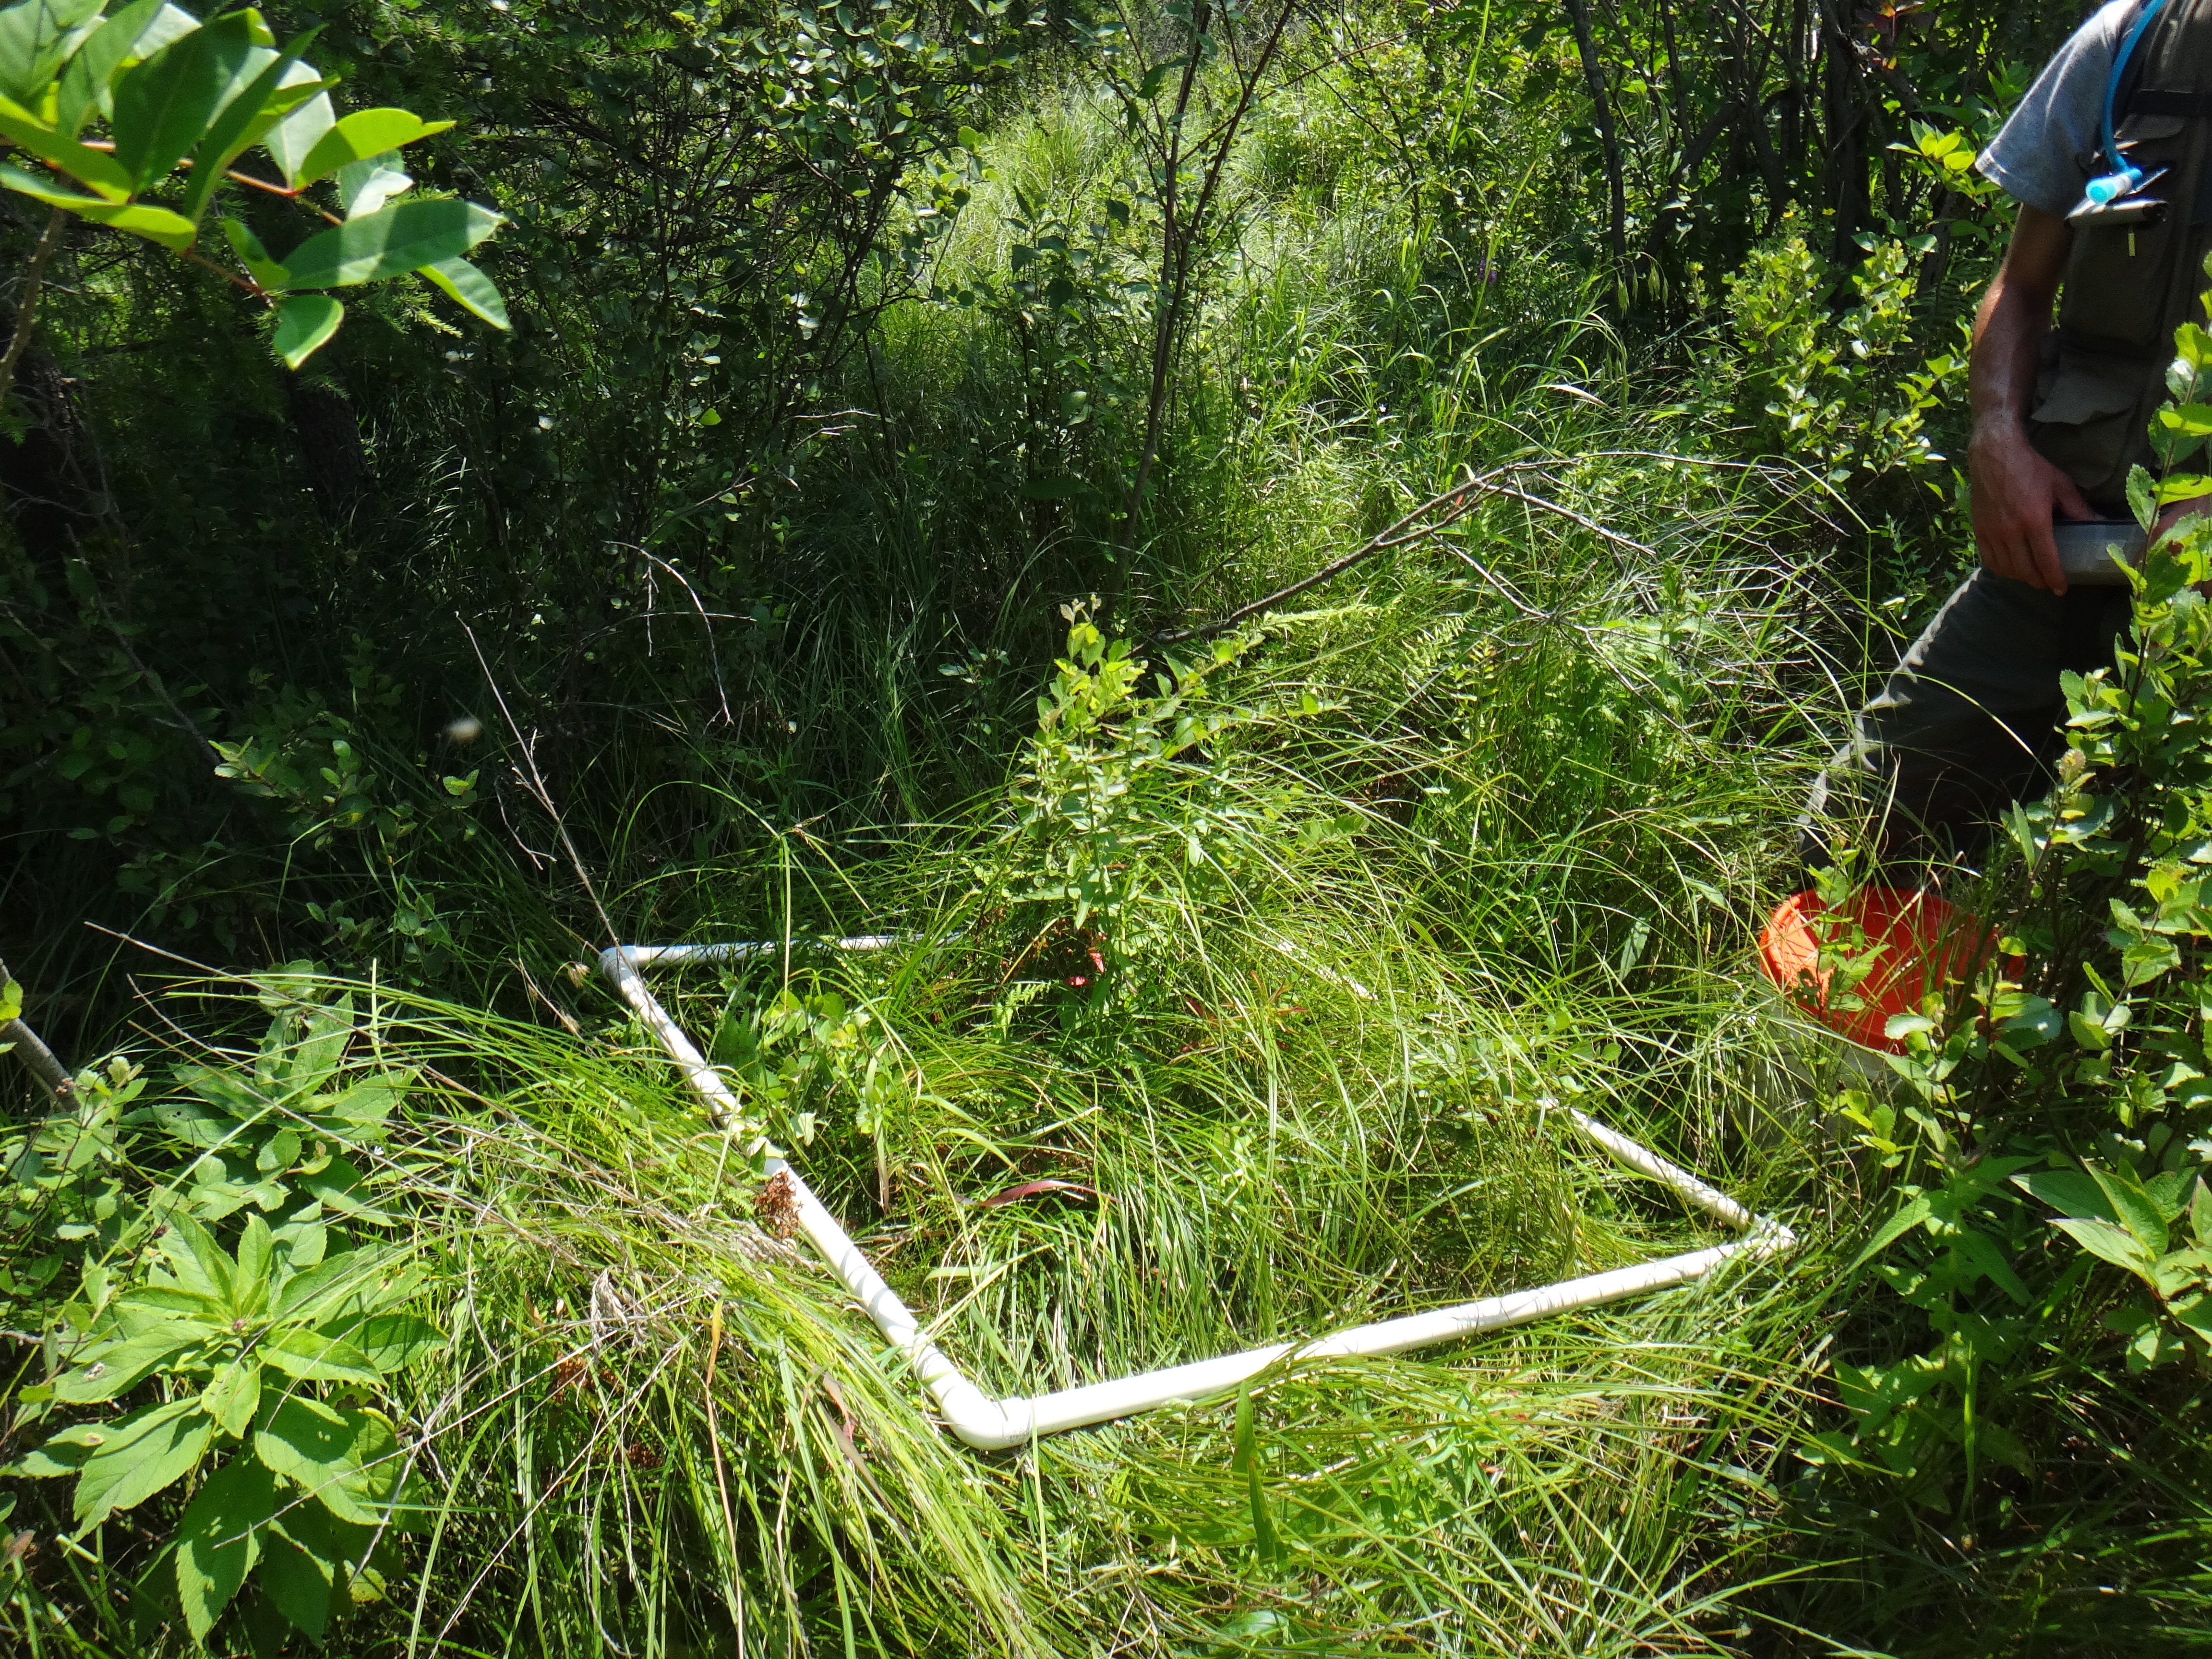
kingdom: Plantae
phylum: Tracheophyta
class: Magnoliopsida
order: Asterales
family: Campanulaceae
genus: Palustricodon
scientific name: Palustricodon aparinoides
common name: Bedstraw bellflower
